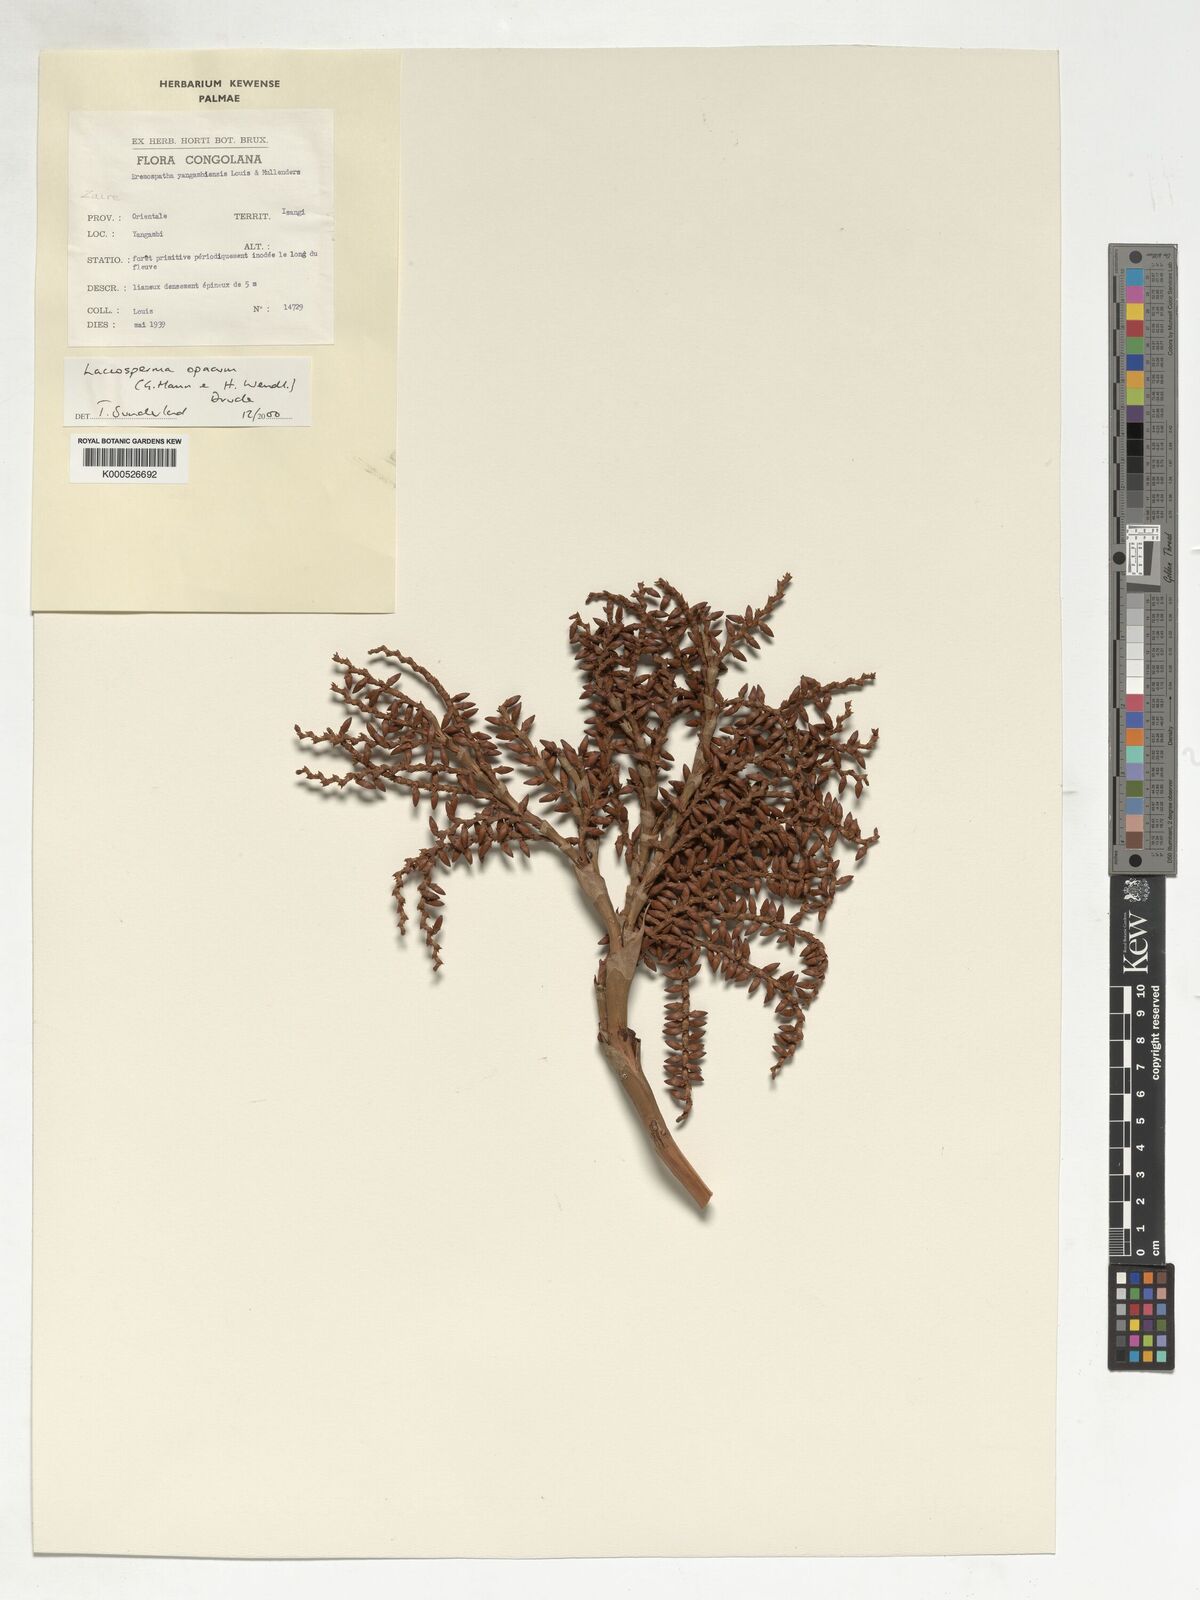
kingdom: Plantae
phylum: Tracheophyta
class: Liliopsida
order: Arecales
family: Arecaceae
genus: Laccosperma
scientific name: Laccosperma opacum
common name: Rattan
